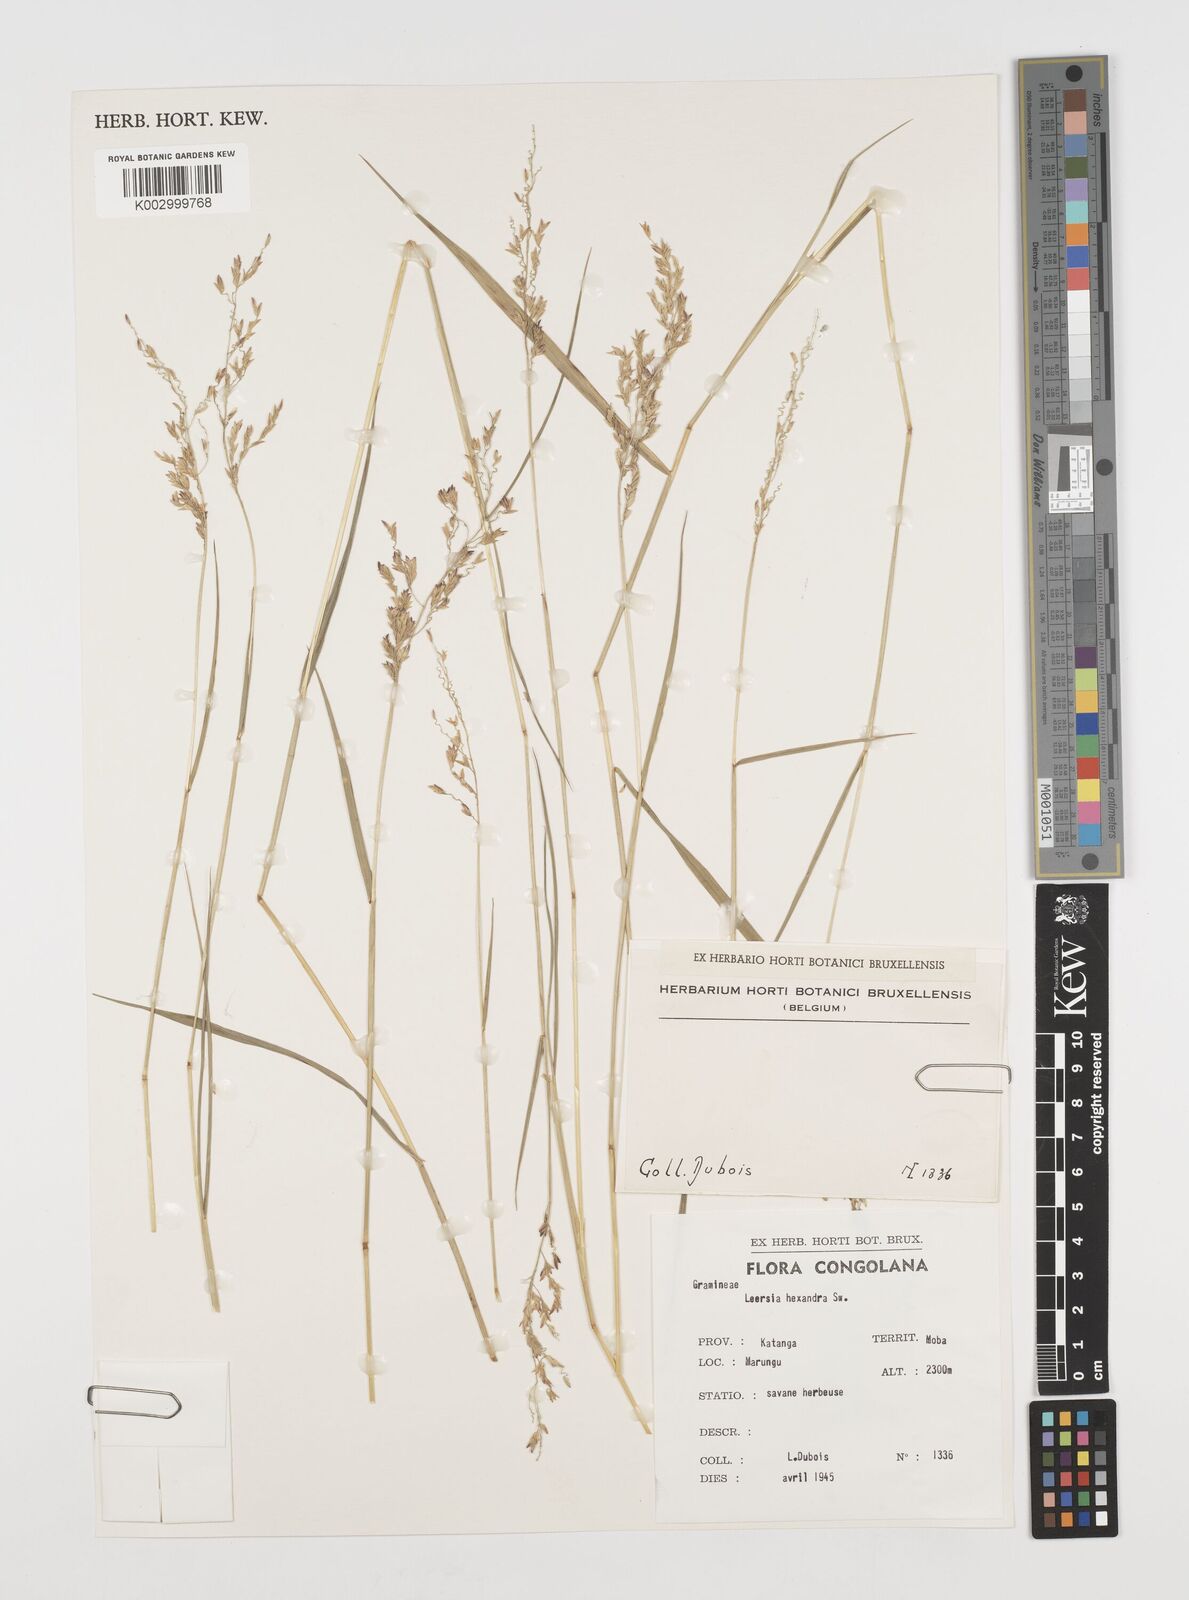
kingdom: Plantae
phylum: Tracheophyta
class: Liliopsida
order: Poales
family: Poaceae
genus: Leersia
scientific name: Leersia hexandra
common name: Southern cut grass
